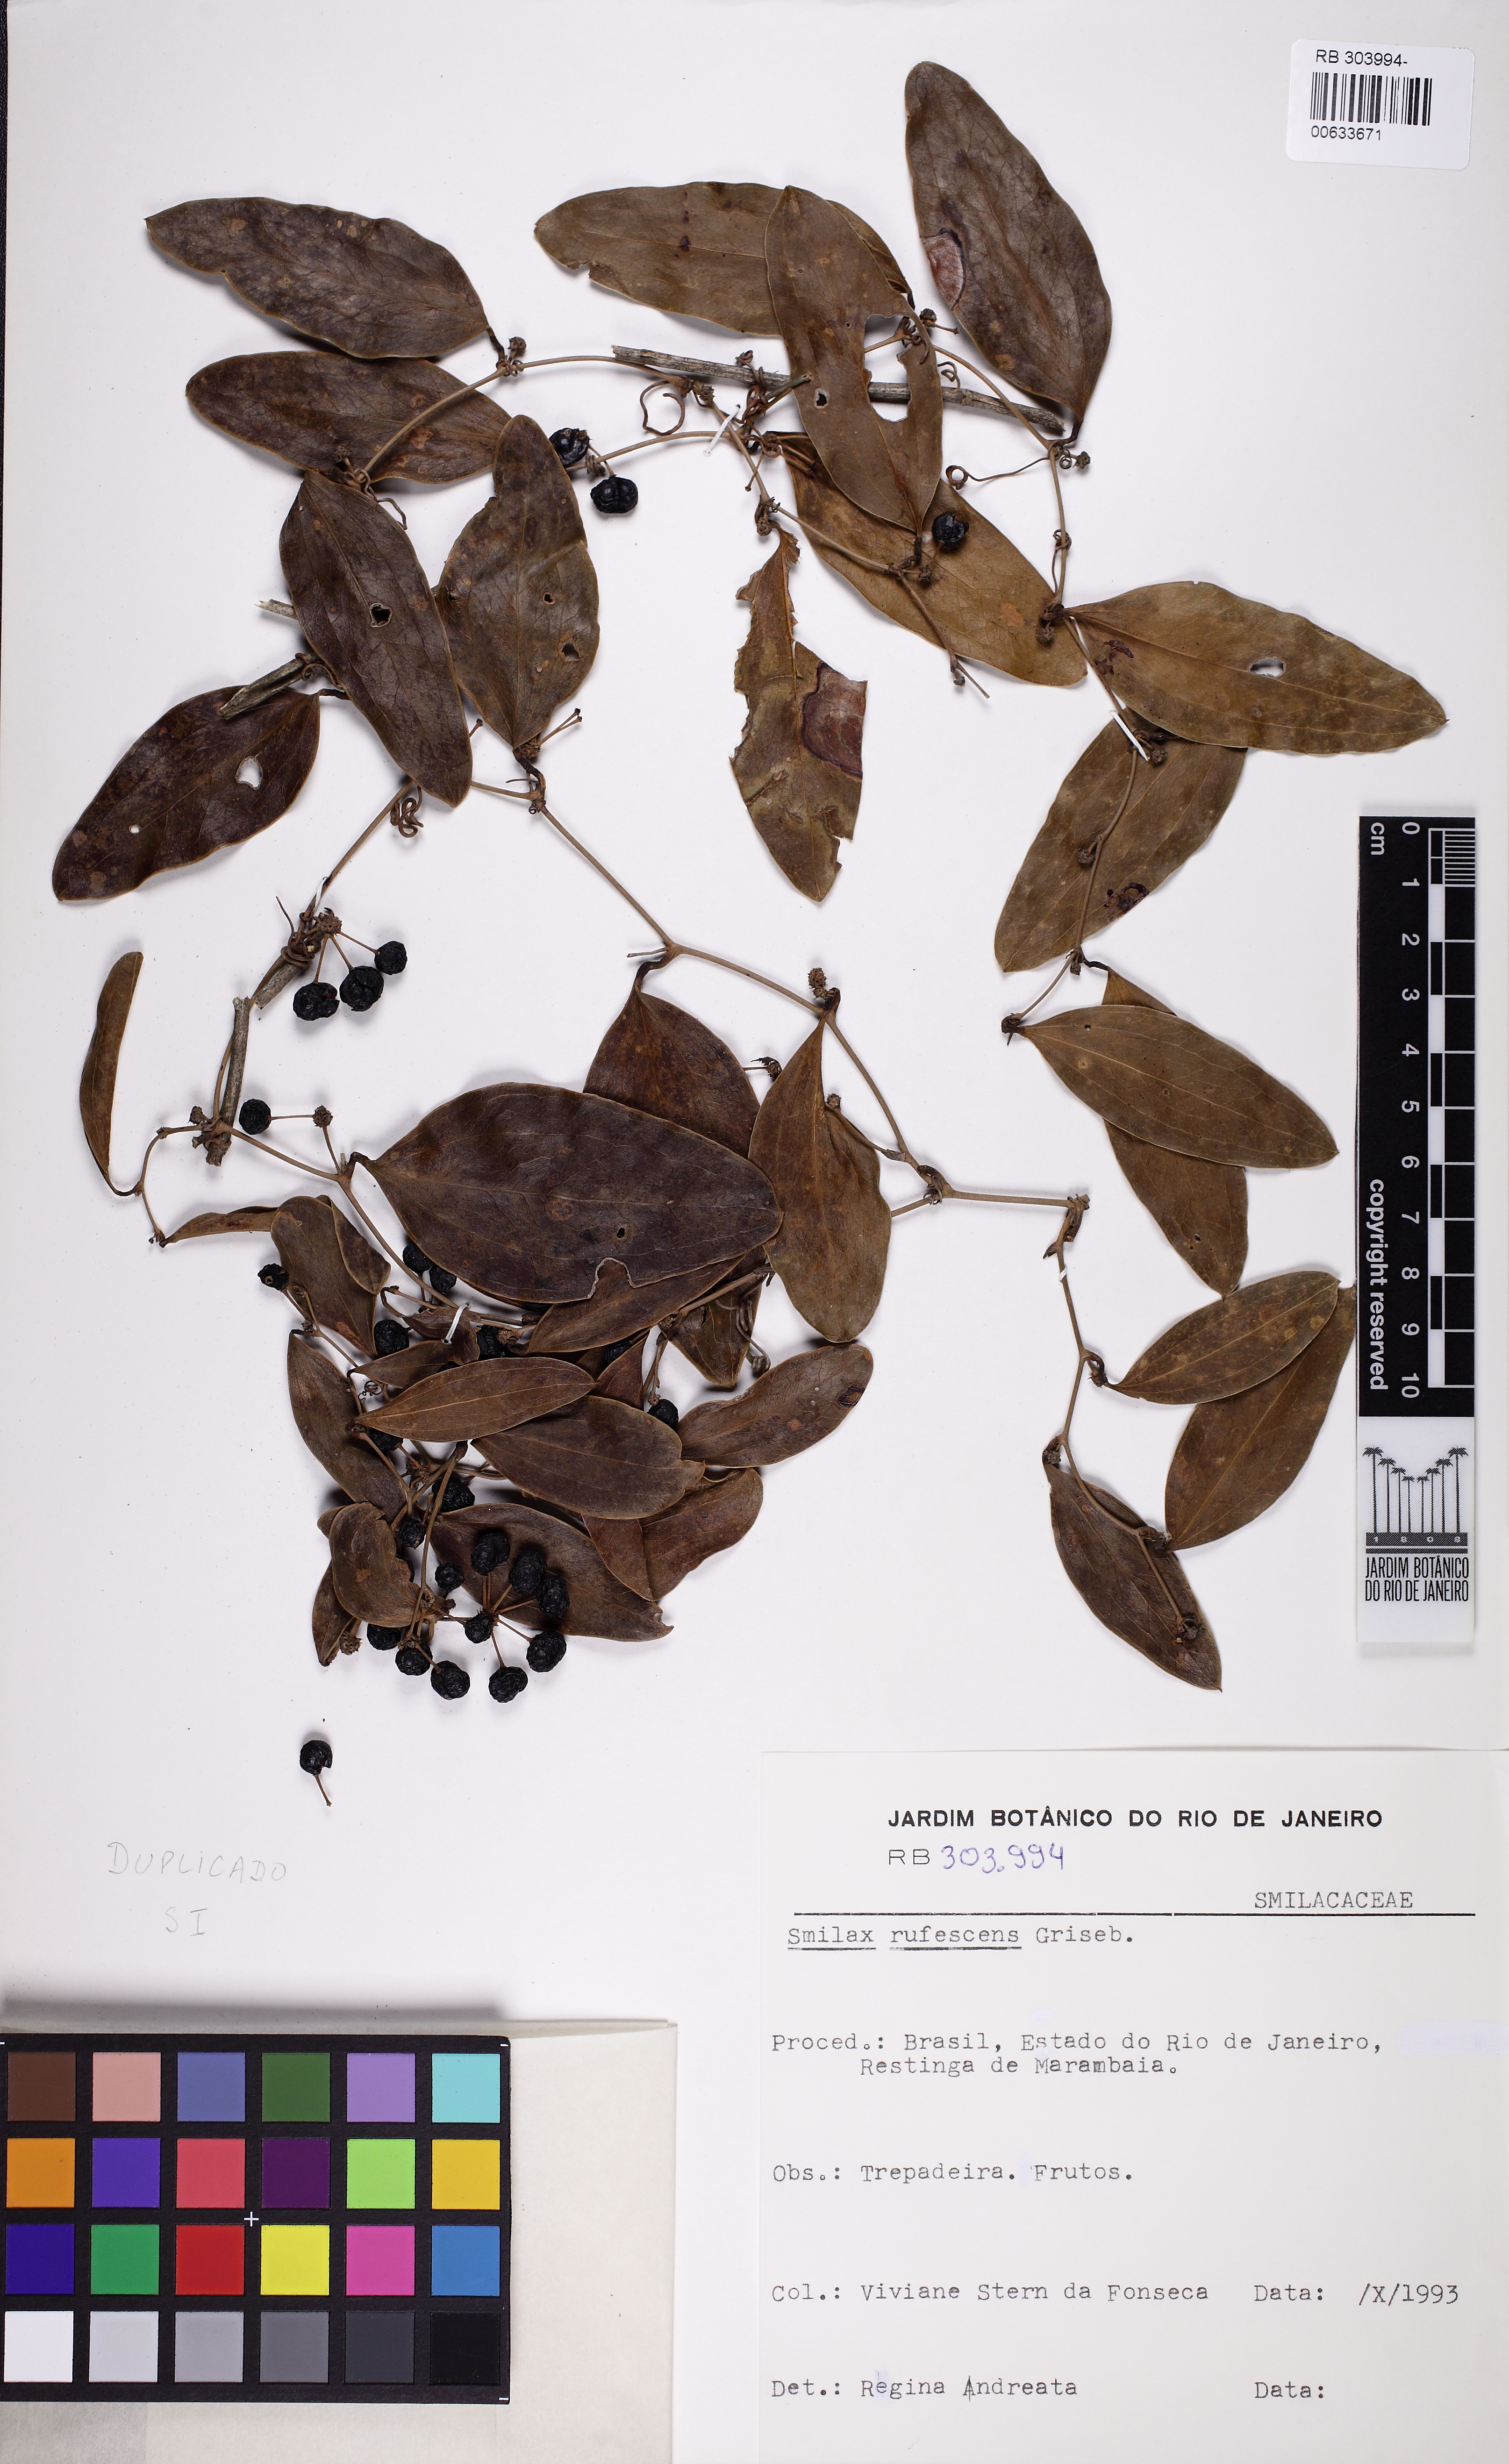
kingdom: Plantae
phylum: Tracheophyta
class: Liliopsida
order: Liliales
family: Smilacaceae
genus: Smilax
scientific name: Smilax rufescens
